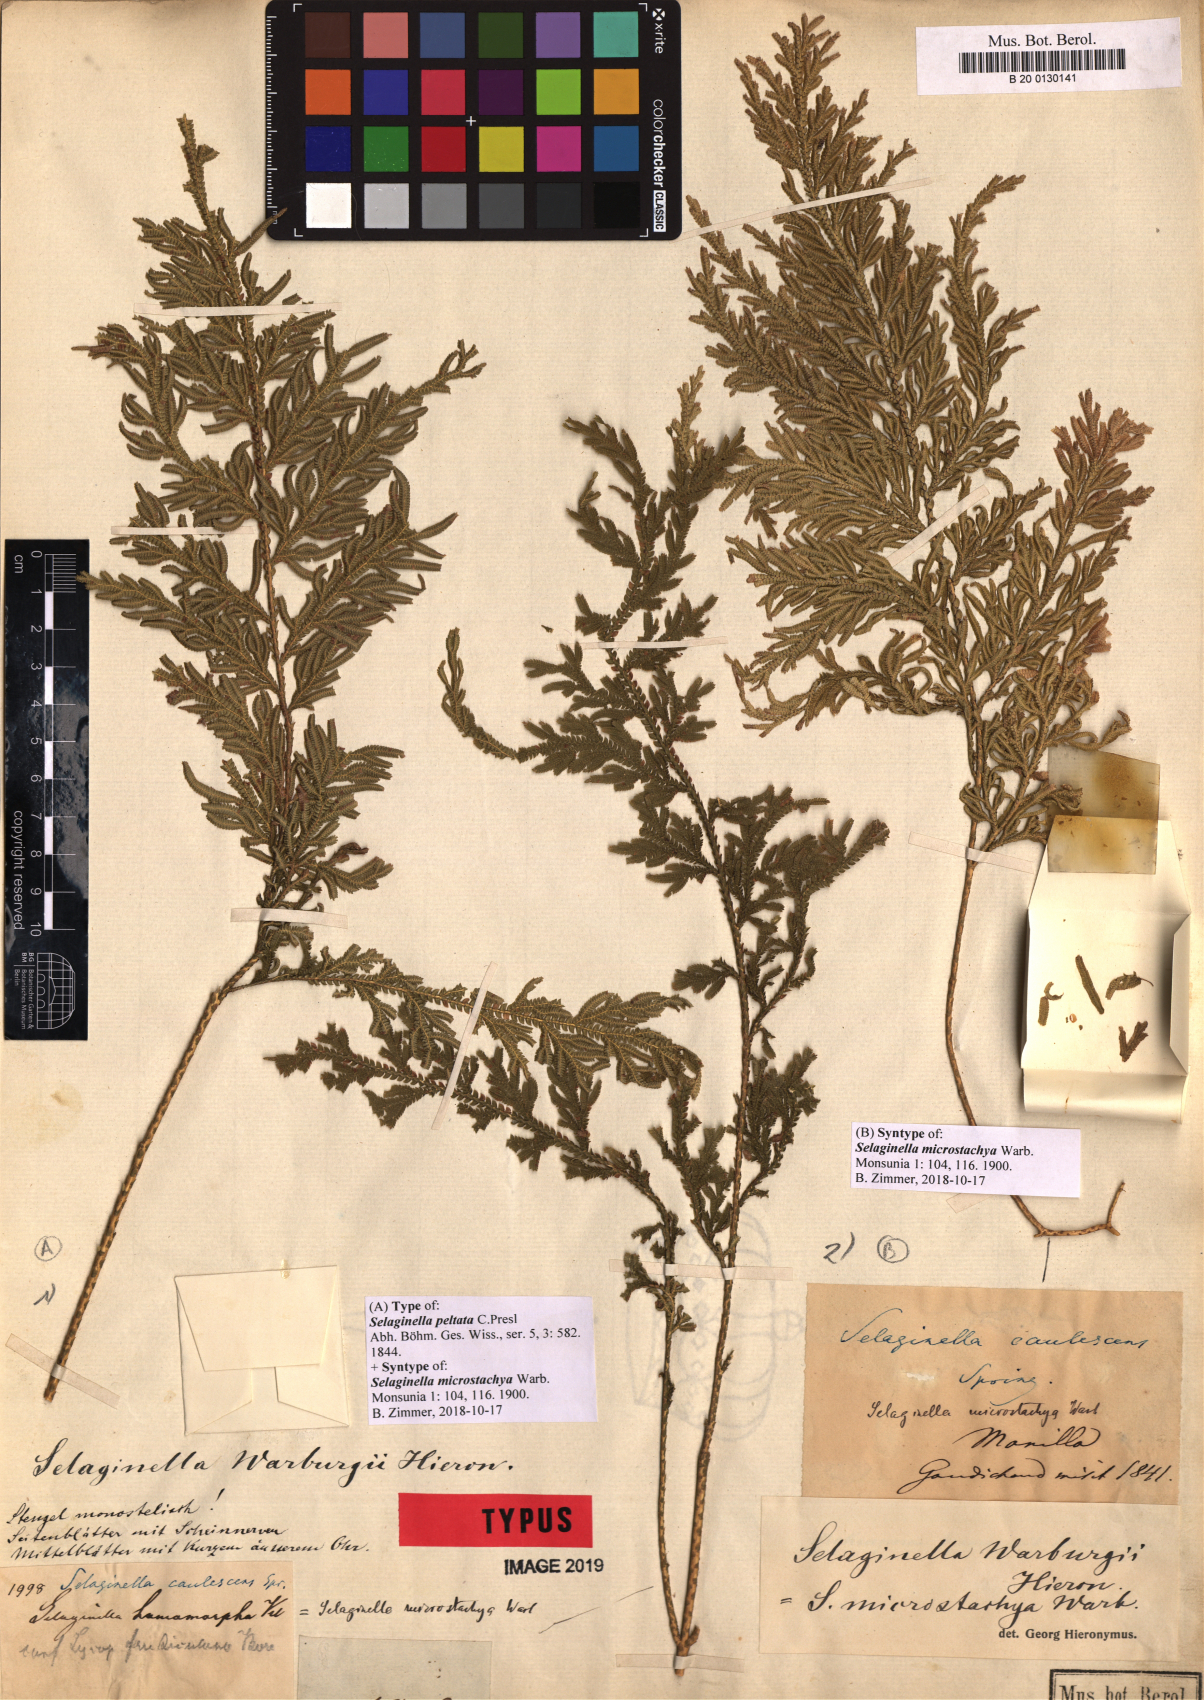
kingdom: Plantae
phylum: Tracheophyta
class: Lycopodiopsida
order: Selaginellales
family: Selaginellaceae
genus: Selaginella
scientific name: Selaginella involvens
